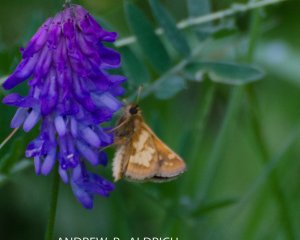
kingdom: Animalia
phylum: Arthropoda
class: Insecta
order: Lepidoptera
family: Hesperiidae
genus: Polites
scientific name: Polites coras
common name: Peck's Skipper
